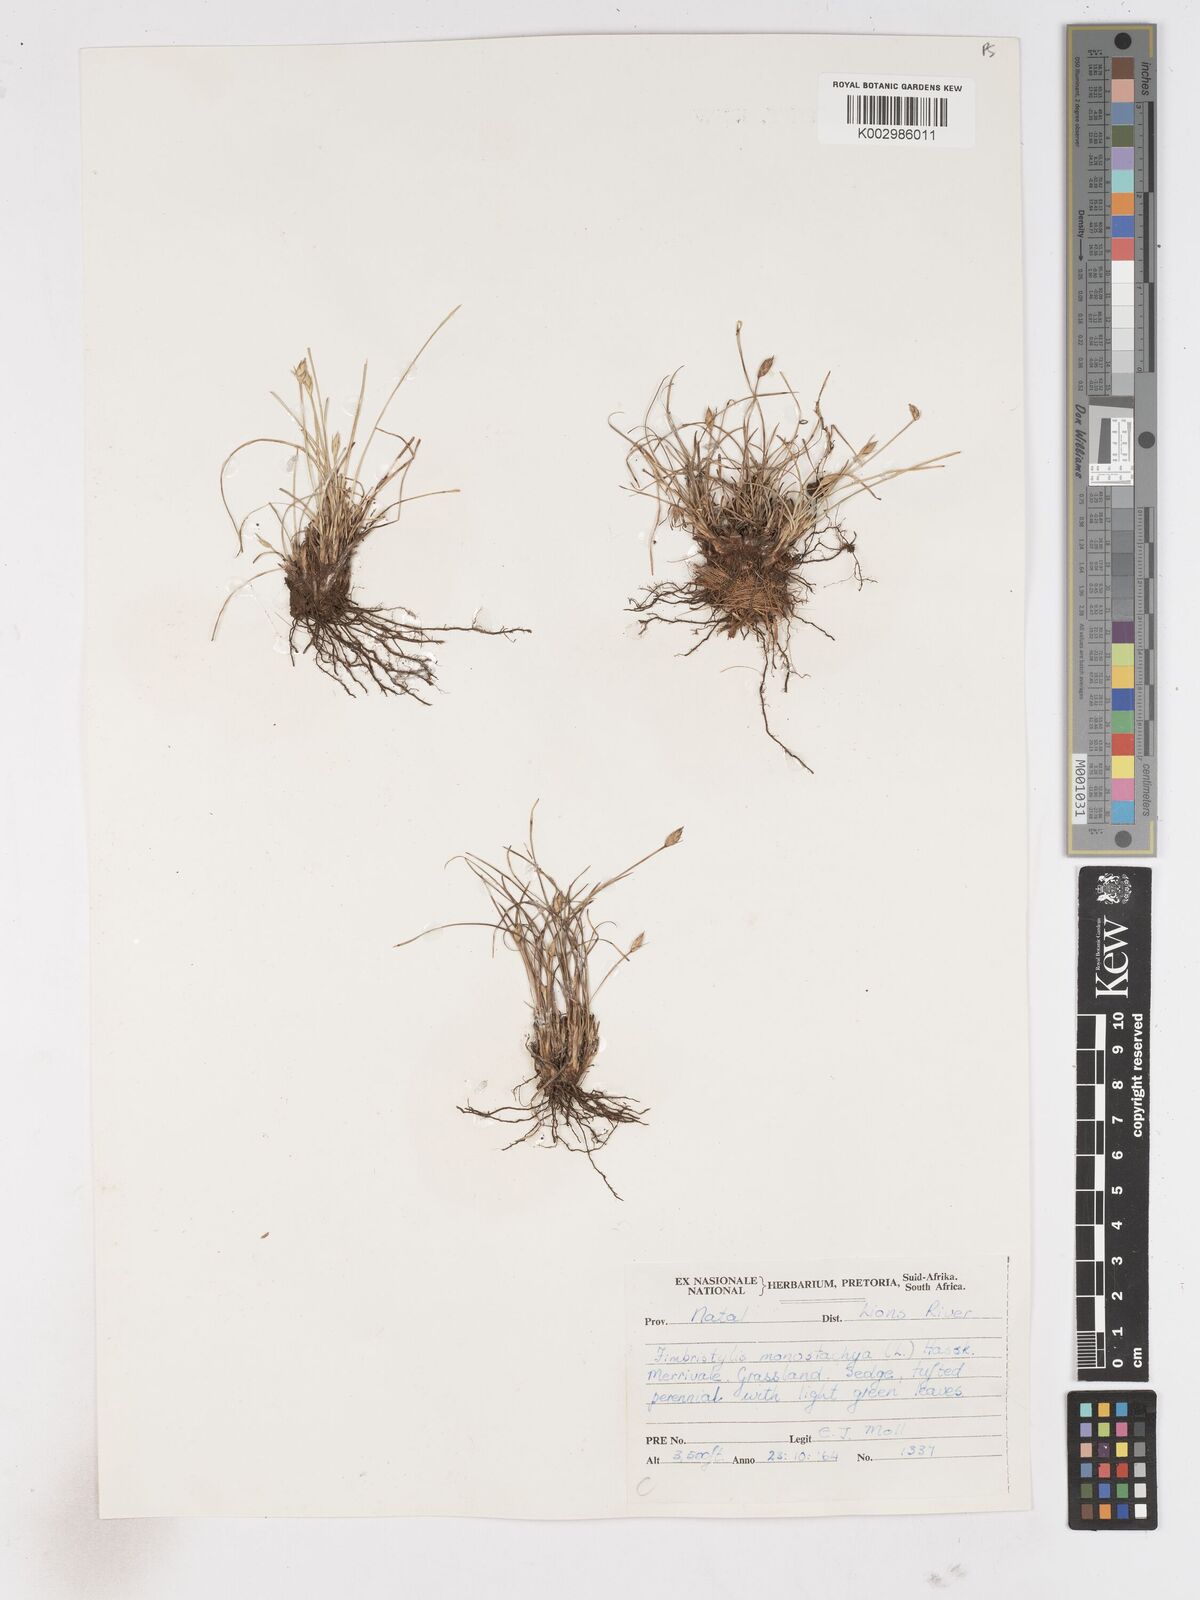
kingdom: Plantae
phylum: Tracheophyta
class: Liliopsida
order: Poales
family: Cyperaceae
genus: Abildgaardia
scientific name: Abildgaardia ovata
